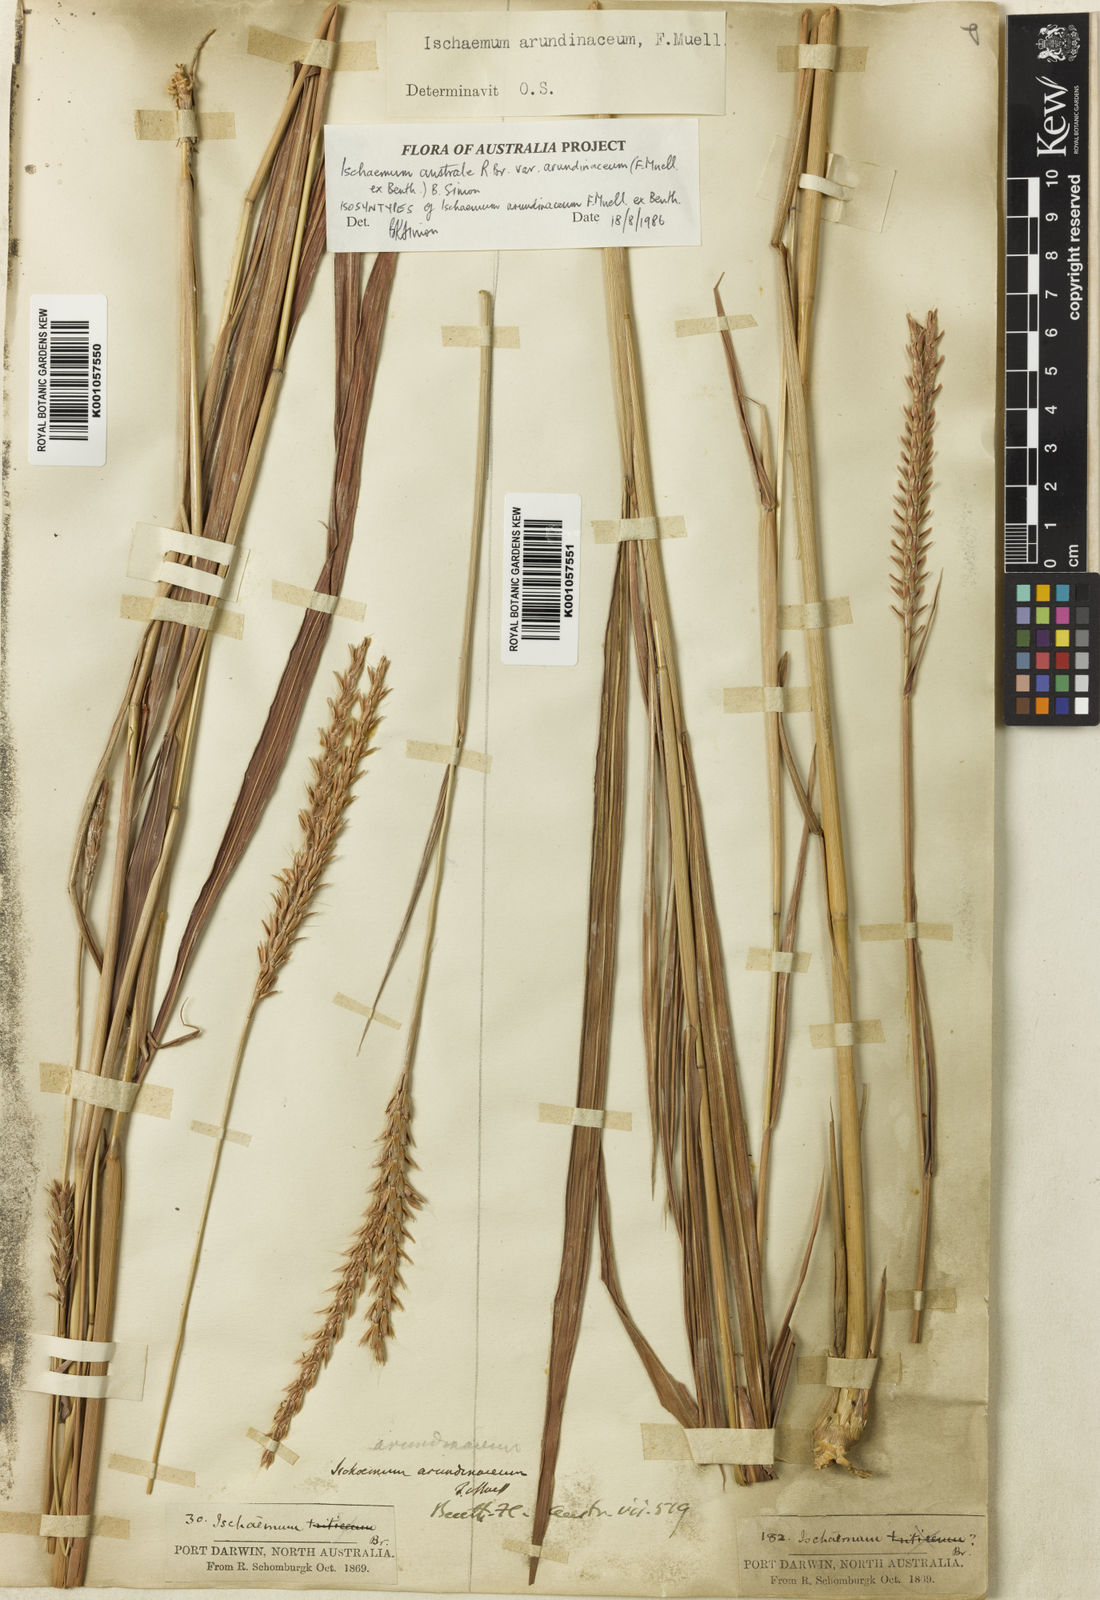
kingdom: Plantae
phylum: Tracheophyta
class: Liliopsida
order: Poales
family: Poaceae
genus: Ischaemum
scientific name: Ischaemum australe
